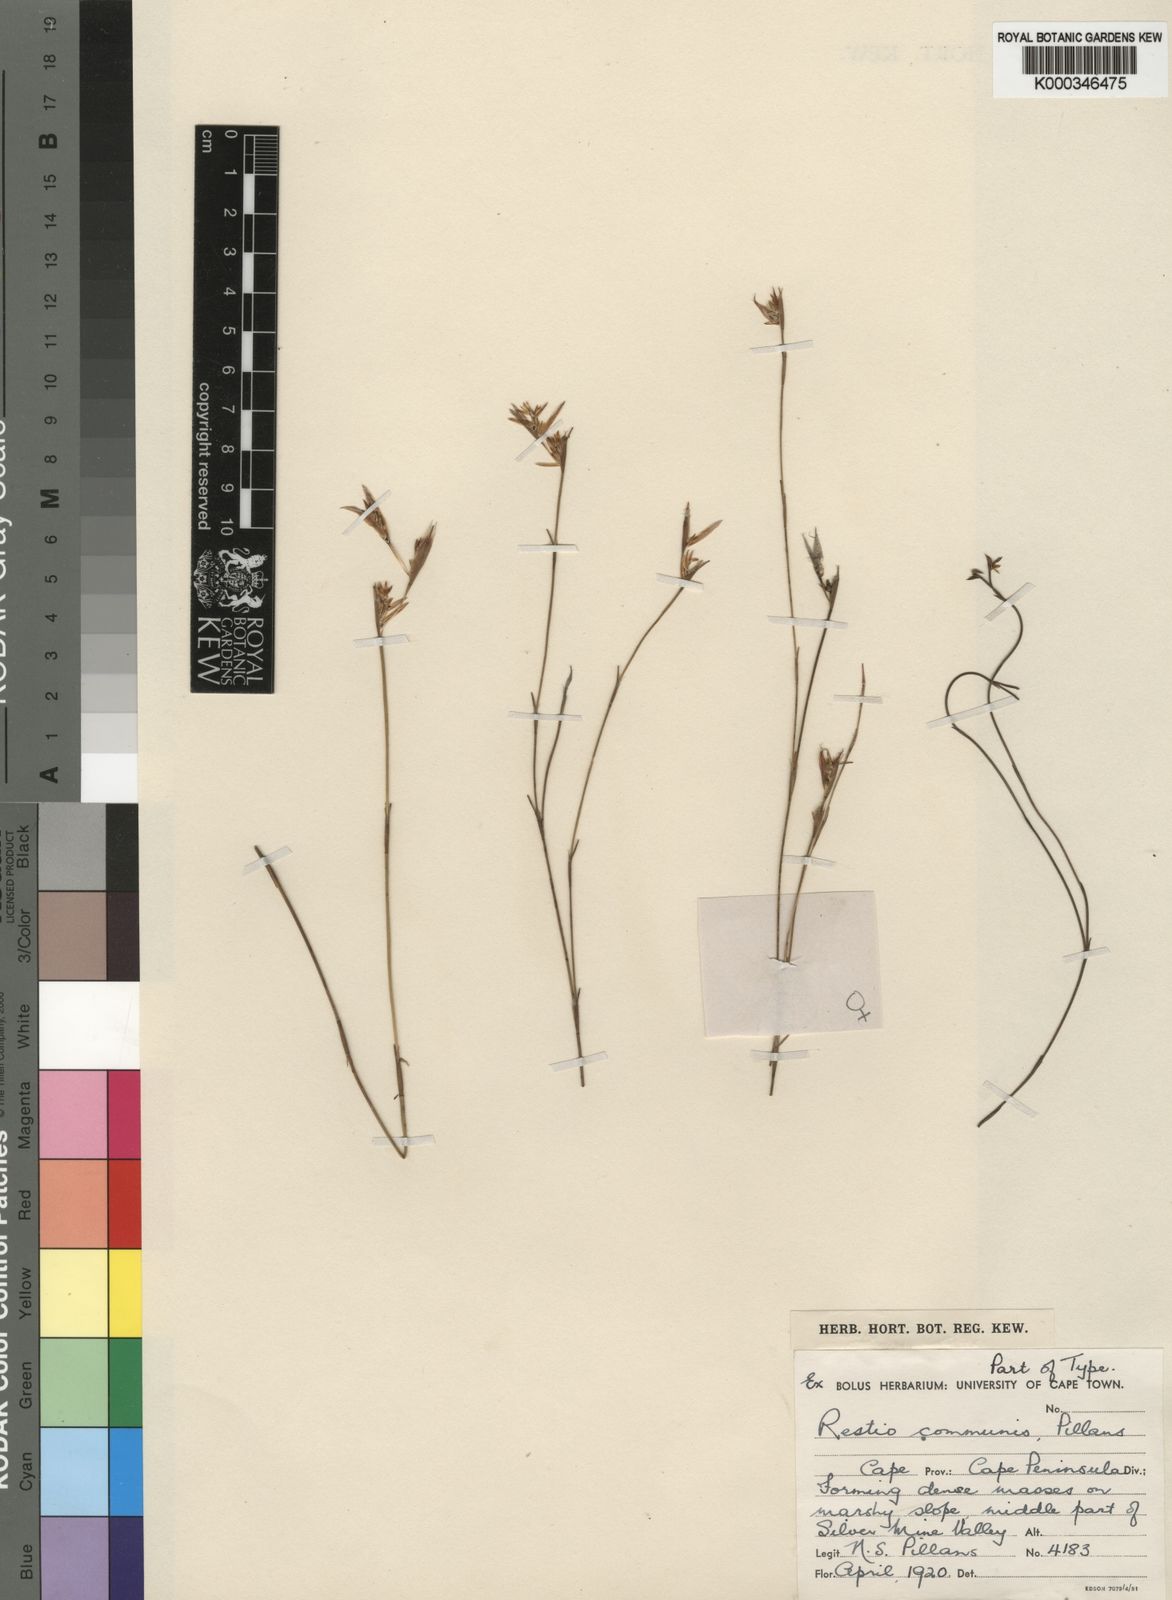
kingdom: Plantae
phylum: Tracheophyta
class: Liliopsida
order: Poales
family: Restionaceae
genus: Restio
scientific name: Restio communis
